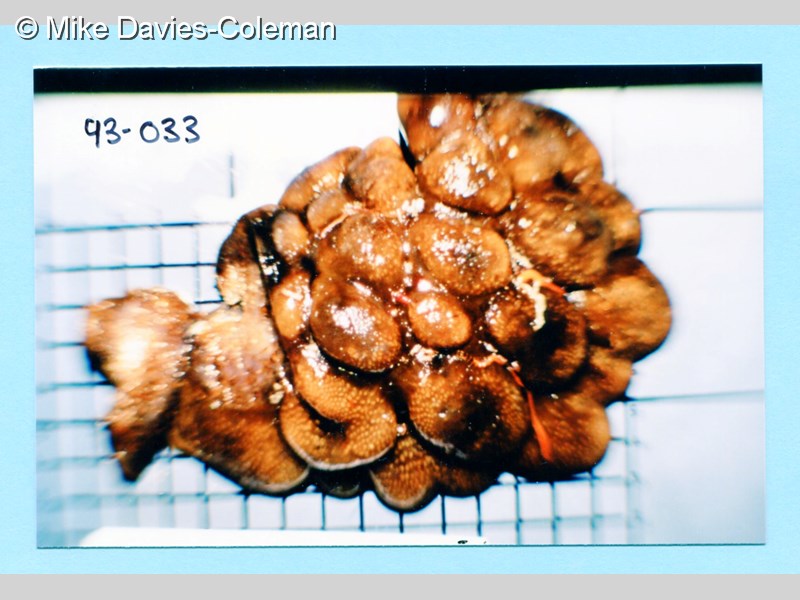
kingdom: Animalia
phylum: Chordata
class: Ascidiacea
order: Aplousobranchia
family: Pseudodistomidae
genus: Pseudodistoma
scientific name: Pseudodistoma
